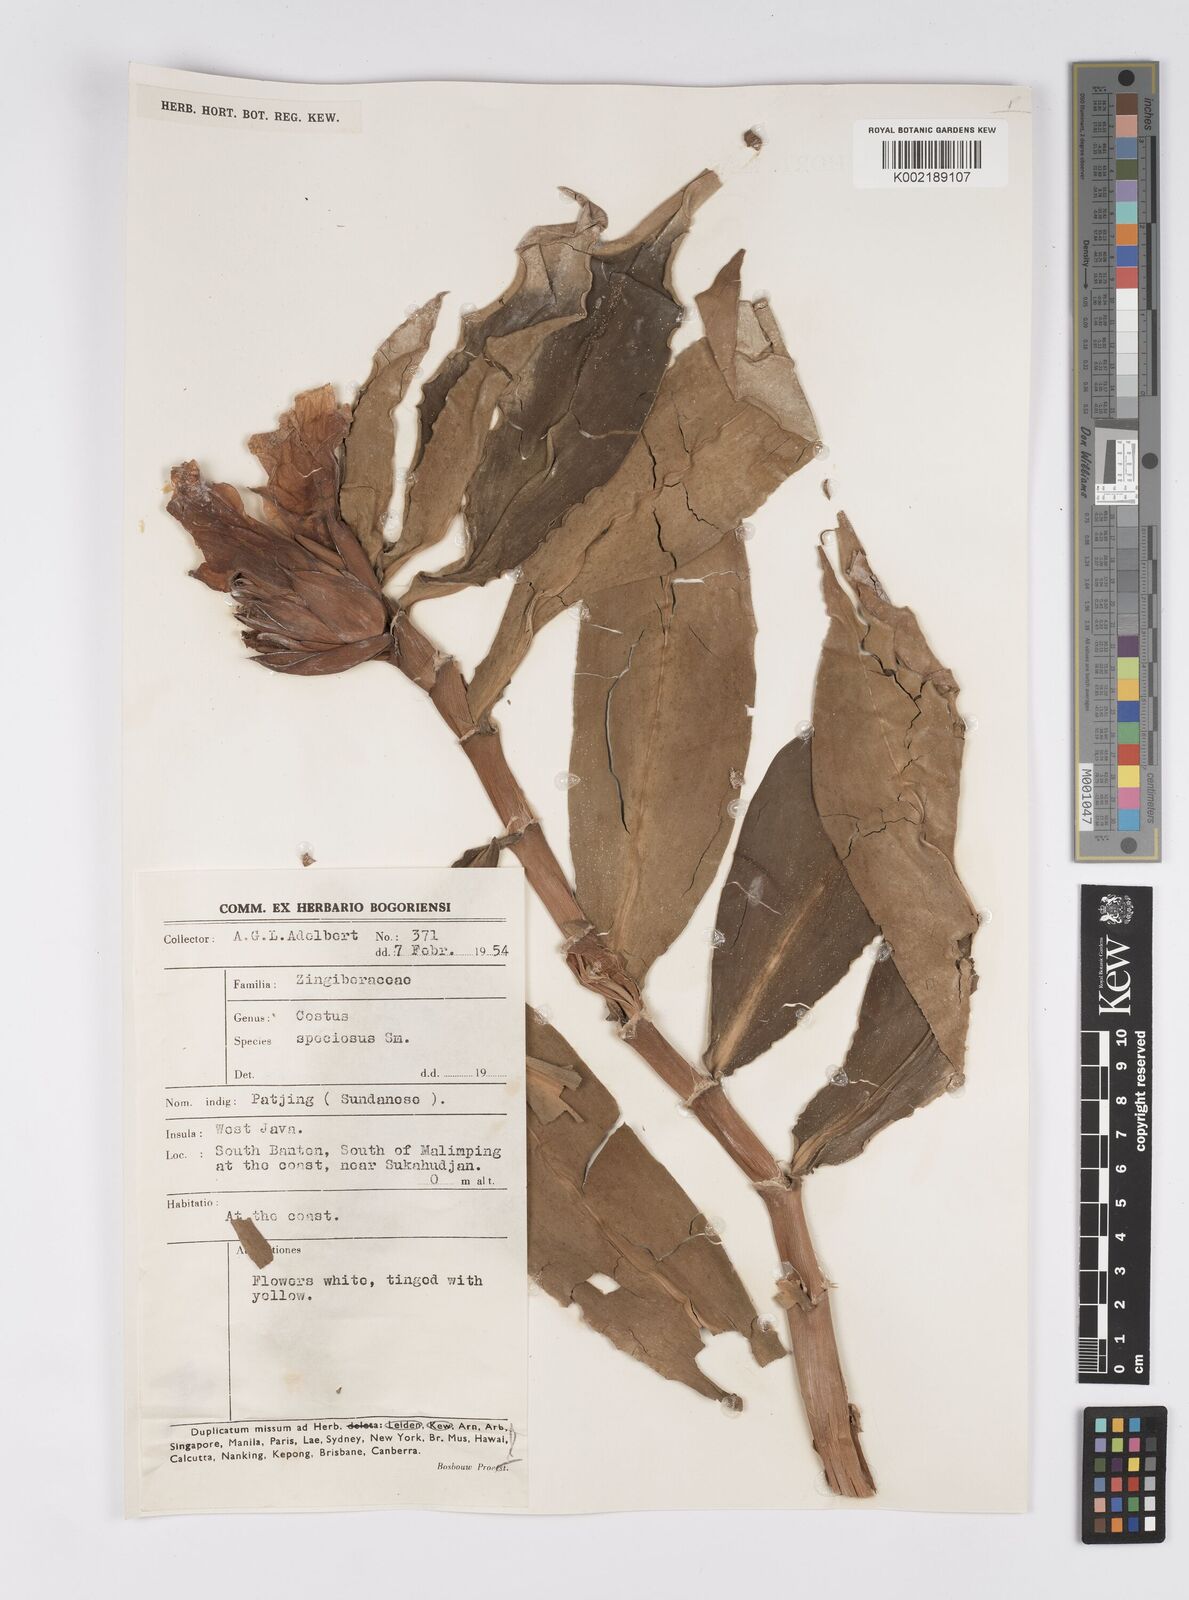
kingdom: Plantae
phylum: Tracheophyta
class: Liliopsida
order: Zingiberales
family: Costaceae
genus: Hellenia
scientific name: Hellenia speciosa
